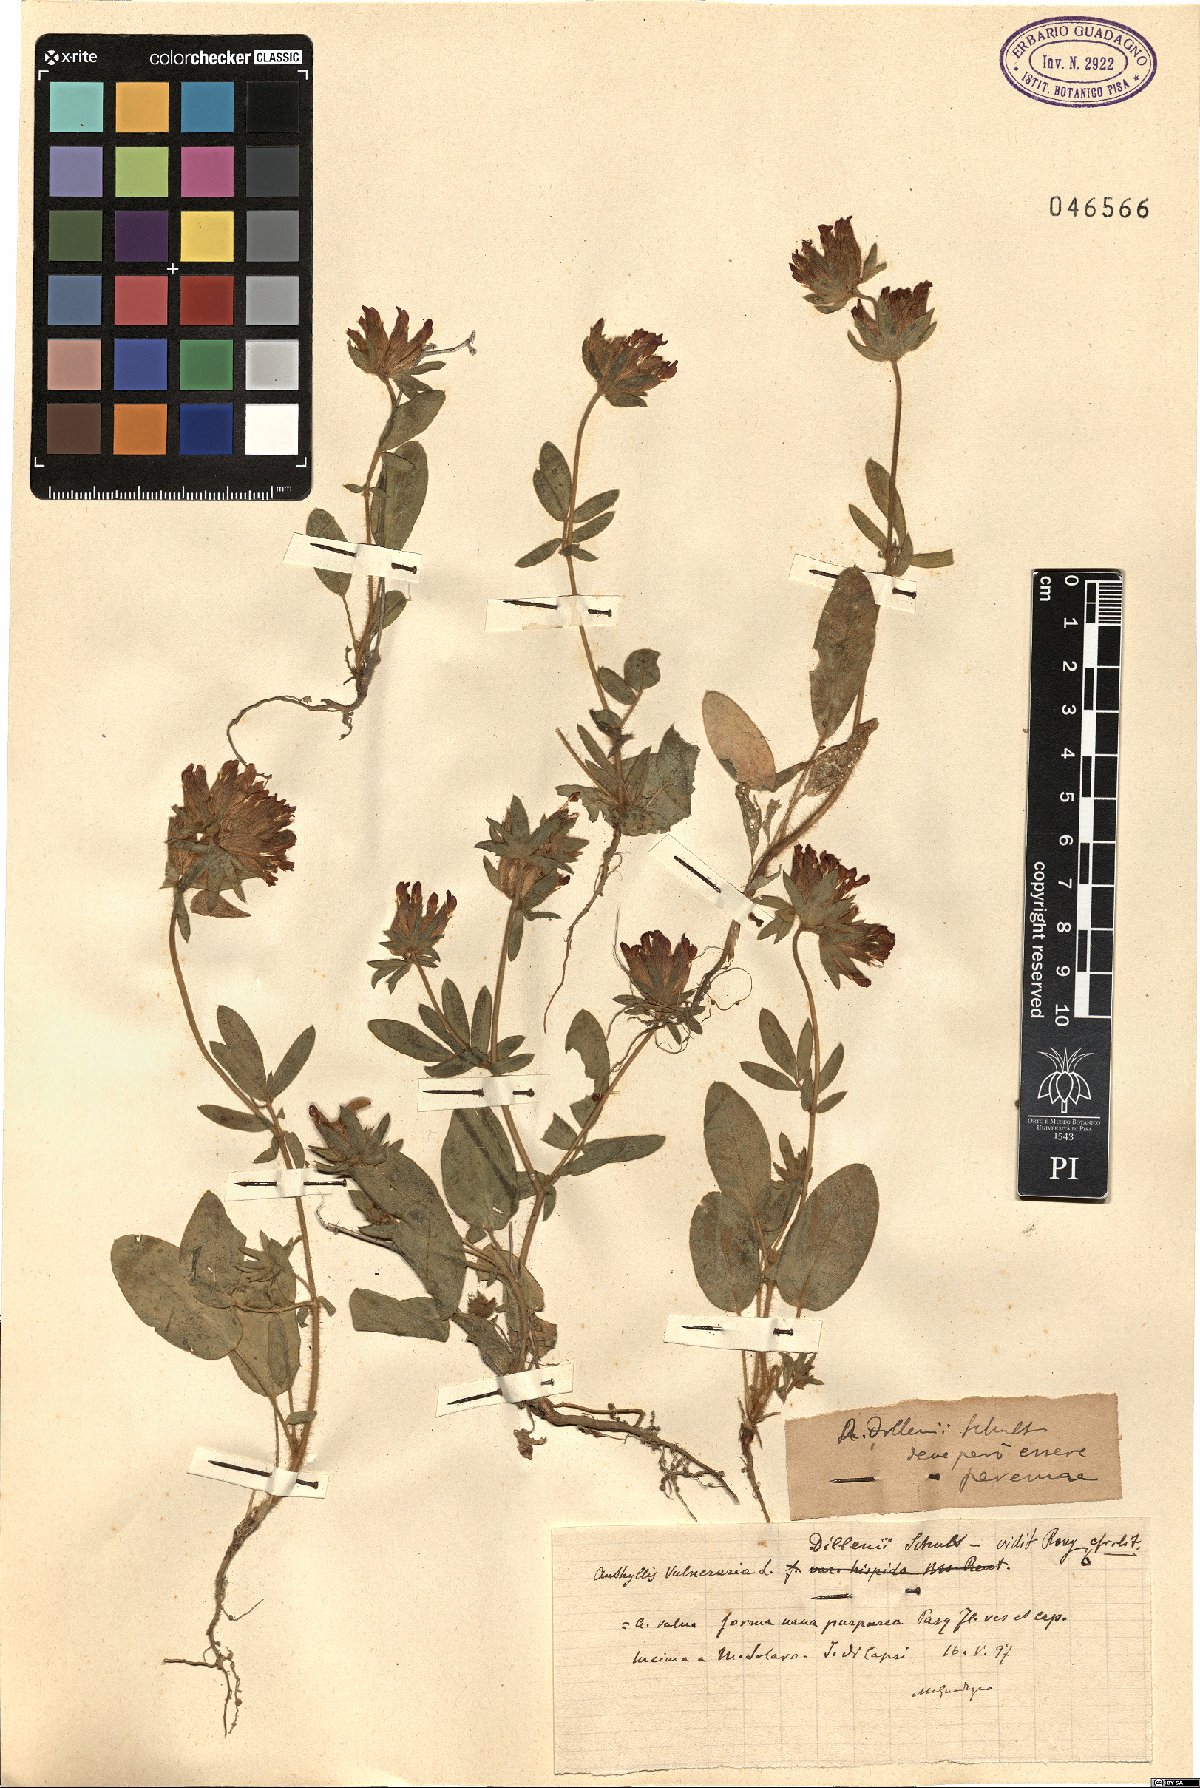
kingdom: Plantae
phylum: Tracheophyta
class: Magnoliopsida
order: Fabales
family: Fabaceae
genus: Anthyllis
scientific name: Anthyllis vulneraria
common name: Kidney vetch
